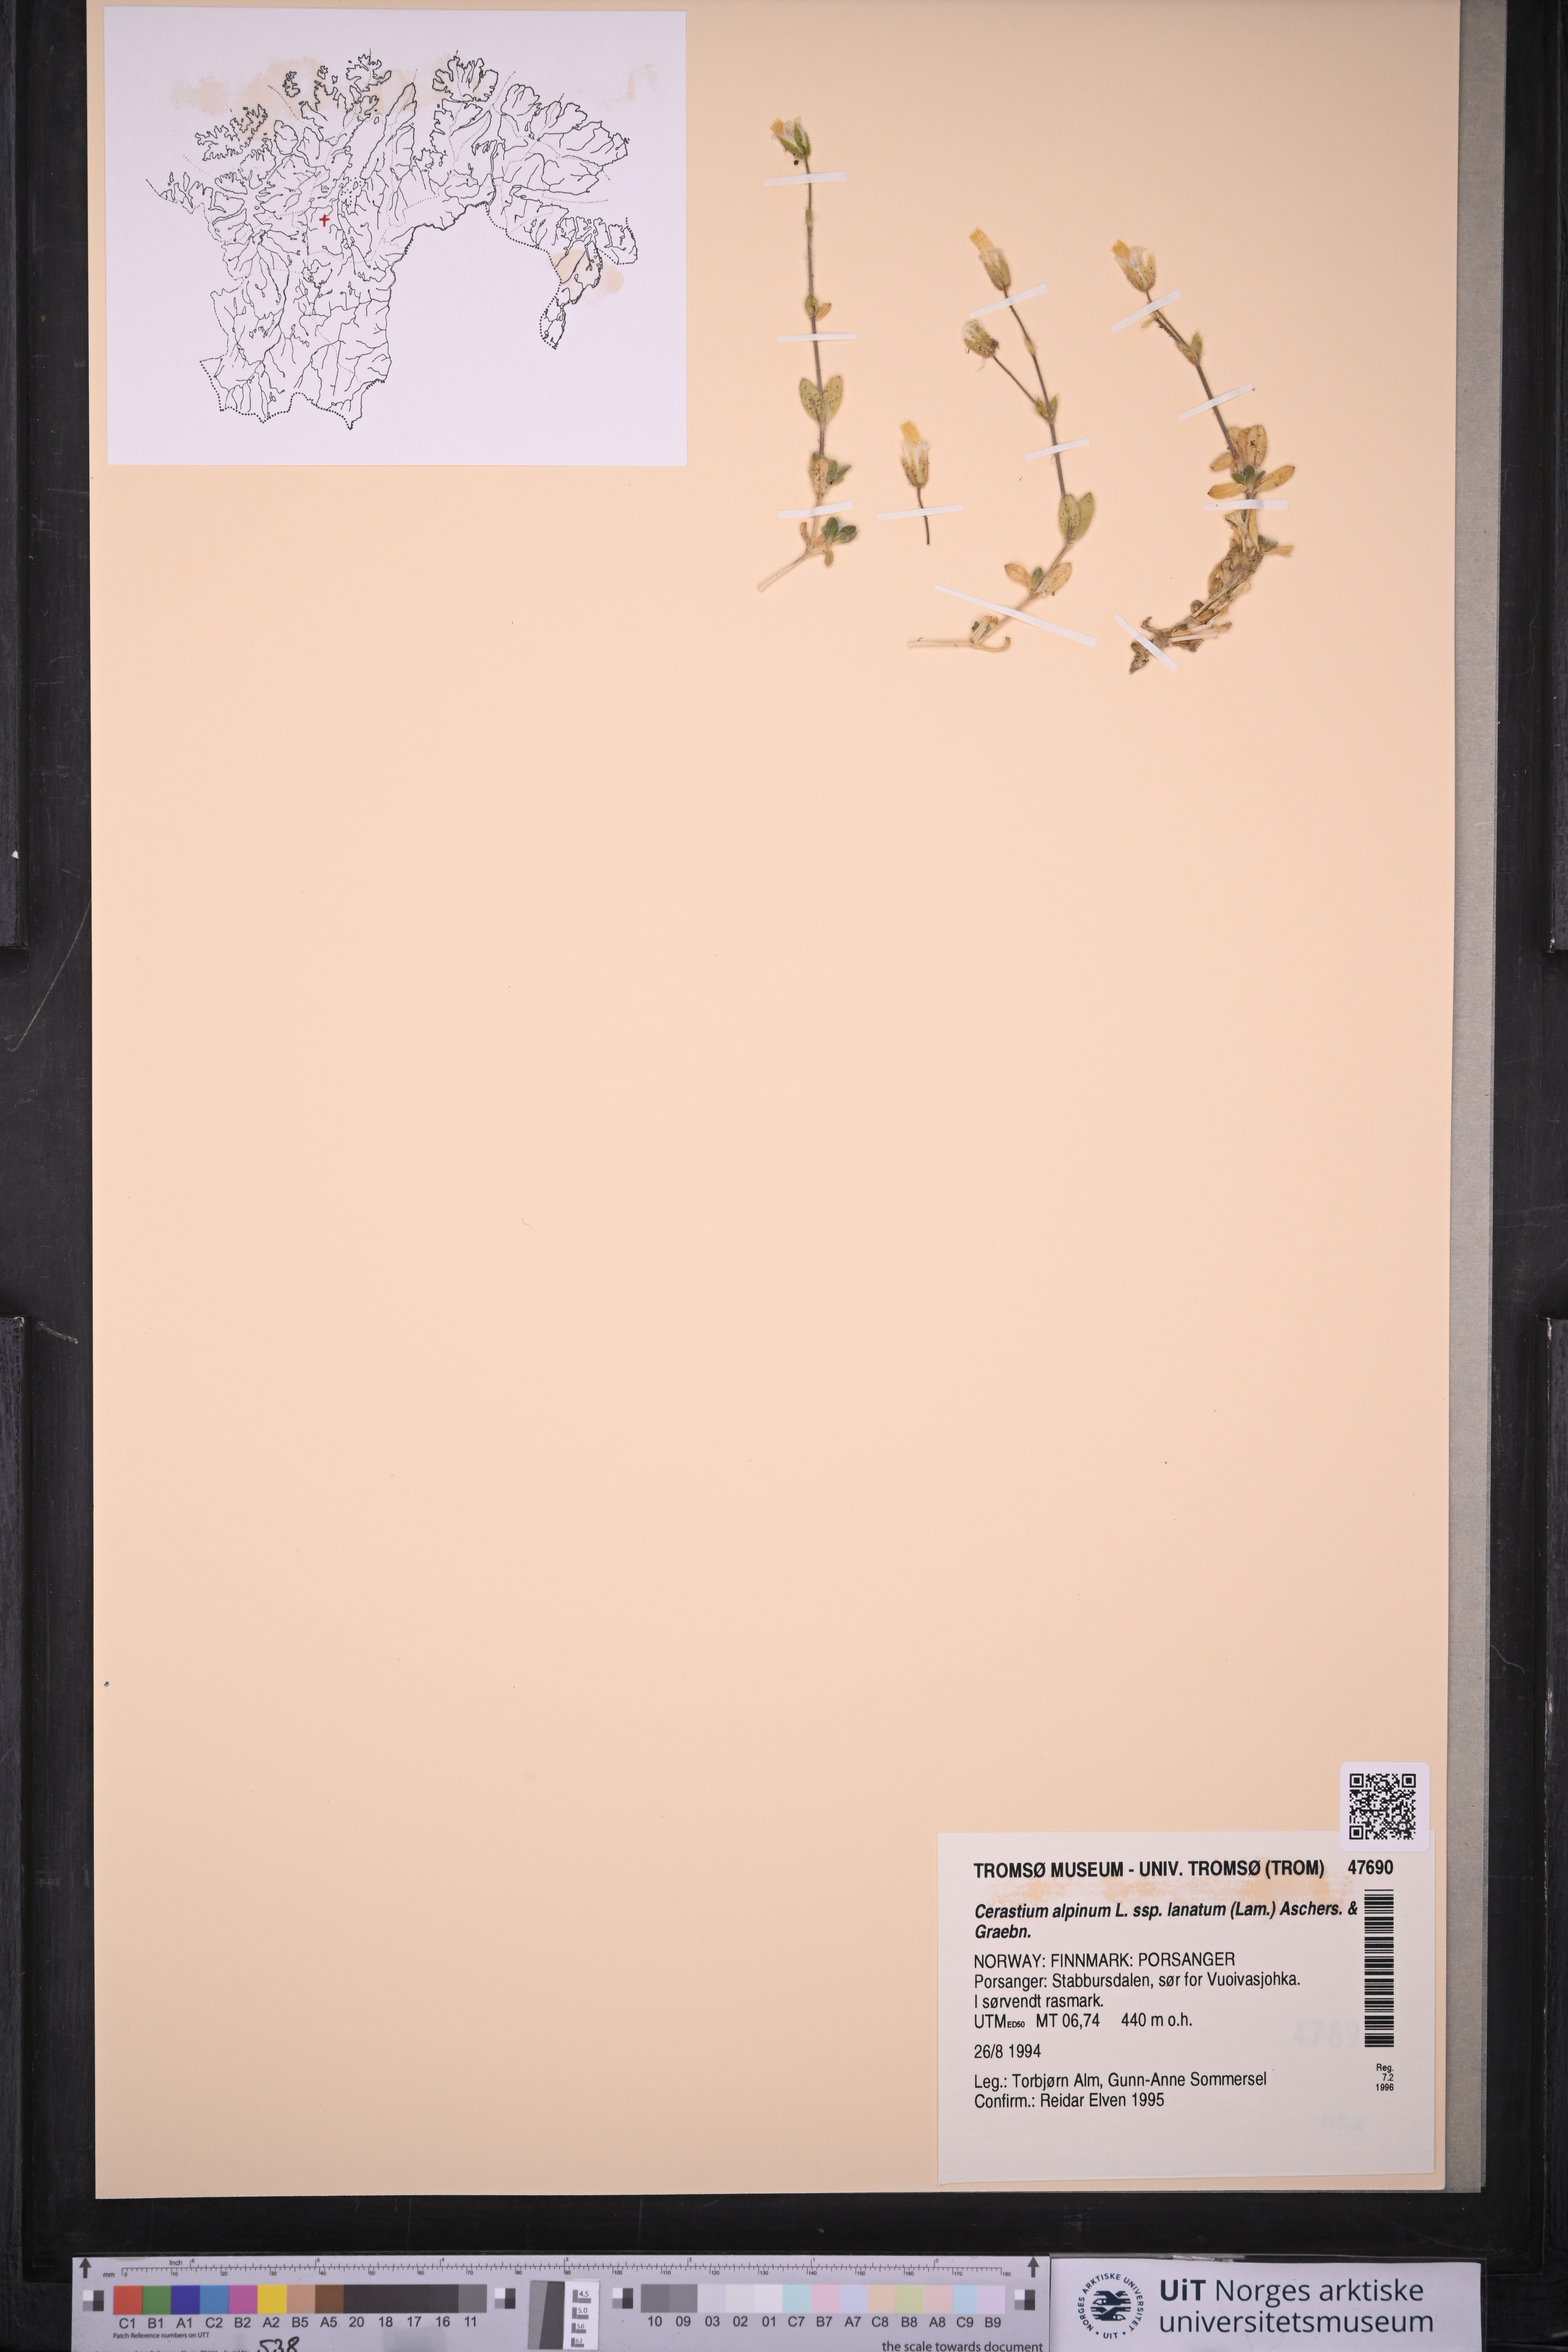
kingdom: Plantae
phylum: Tracheophyta
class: Magnoliopsida
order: Caryophyllales
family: Caryophyllaceae
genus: Cerastium
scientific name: Cerastium alpinum
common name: Alpine mouse-ear
